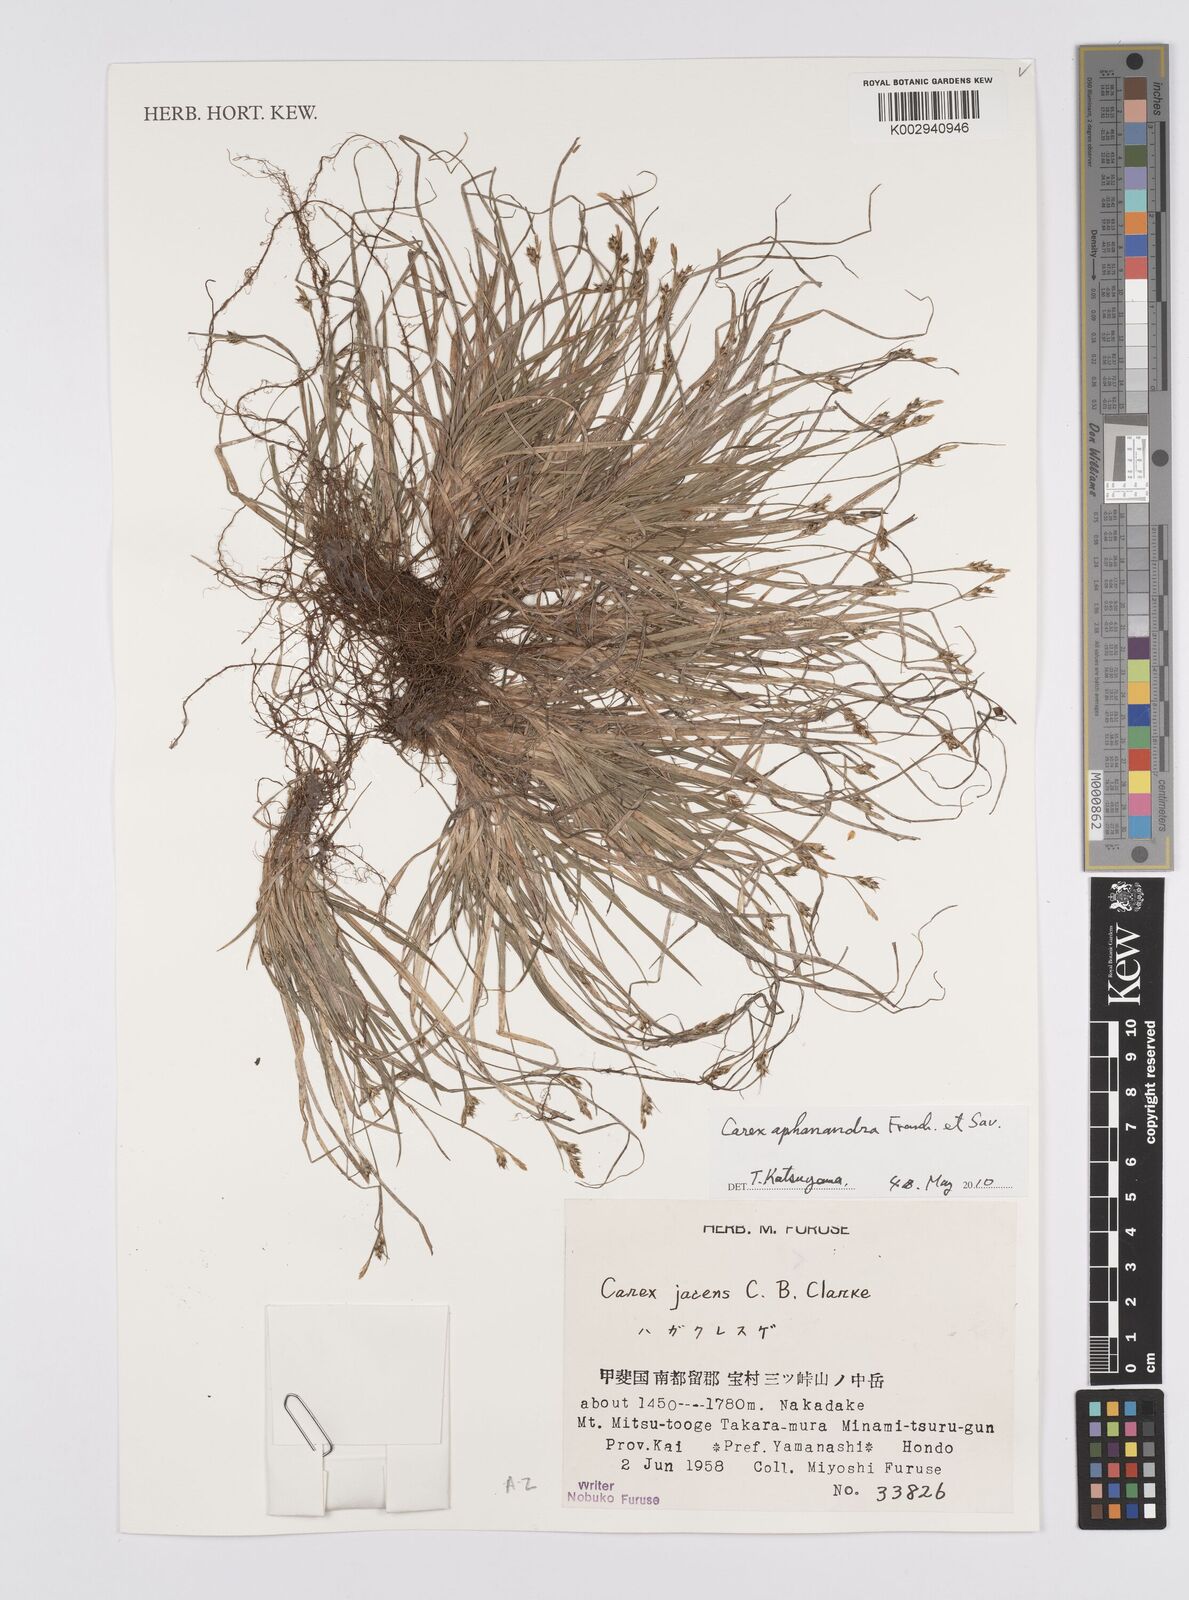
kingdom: Plantae
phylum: Tracheophyta
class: Liliopsida
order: Poales
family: Cyperaceae
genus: Carex
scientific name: Carex breviculmis
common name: Asian shortstem sedge
